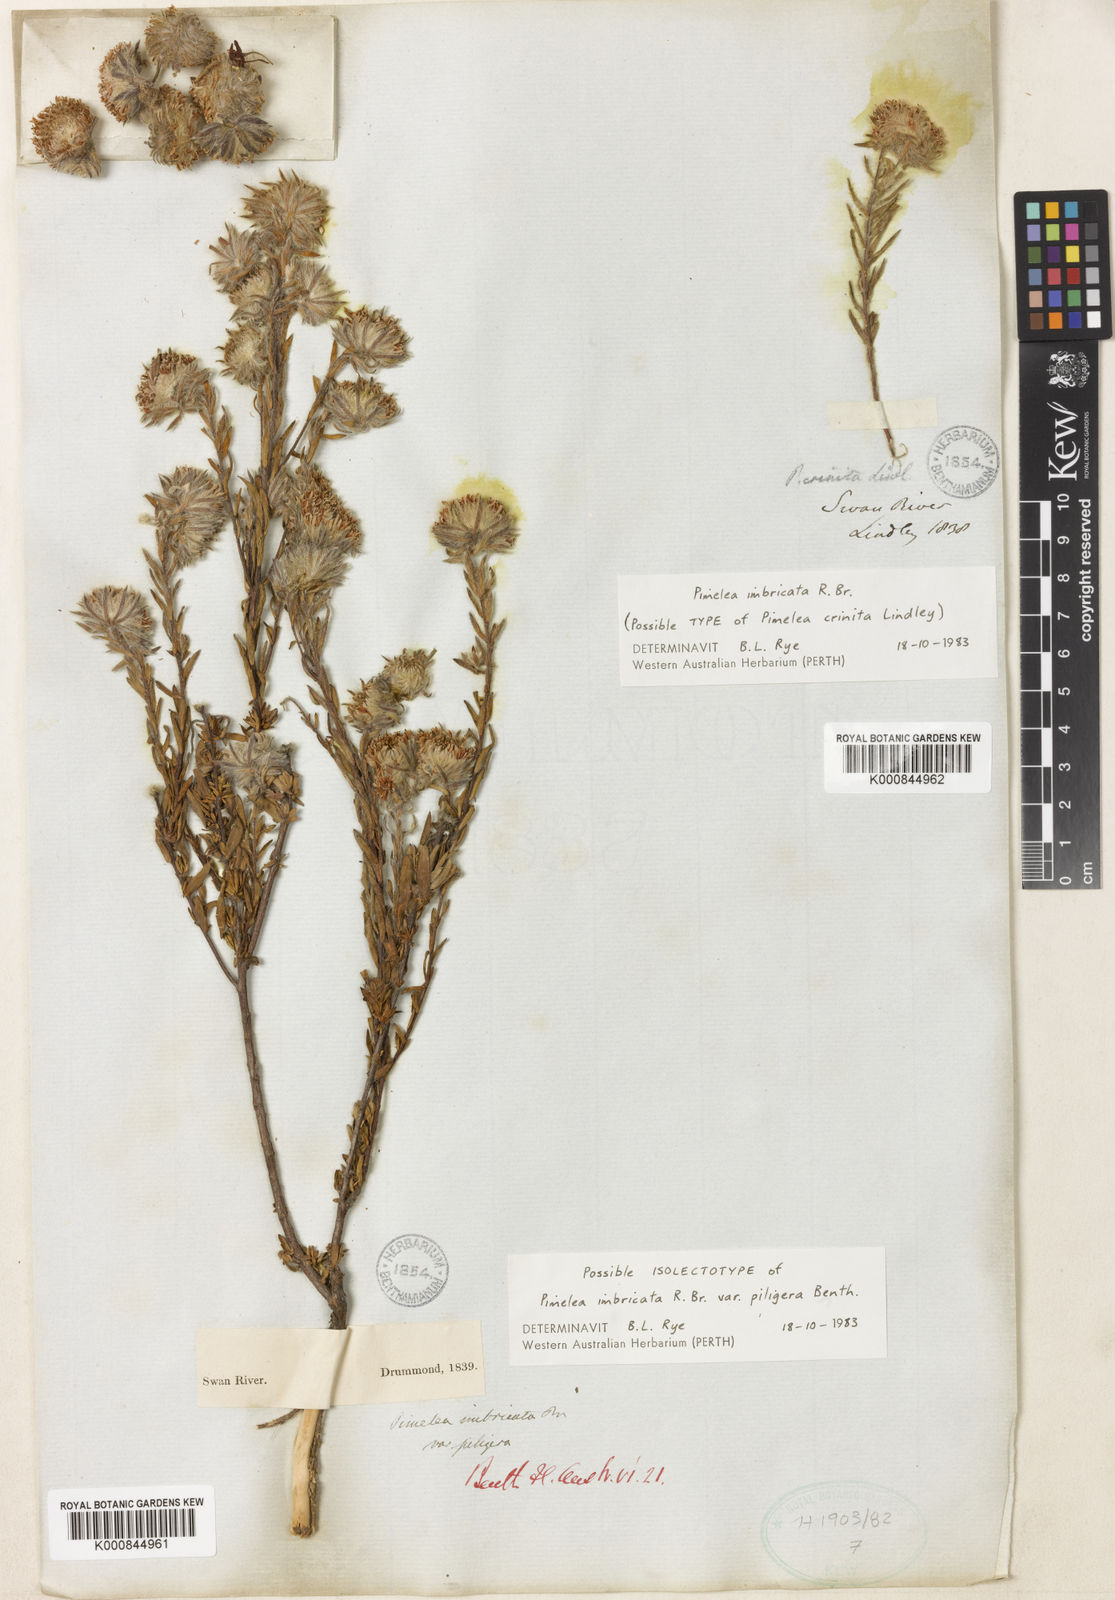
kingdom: Plantae
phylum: Tracheophyta
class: Magnoliopsida
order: Malvales
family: Thymelaeaceae
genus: Pimelea
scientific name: Pimelea imbricata
